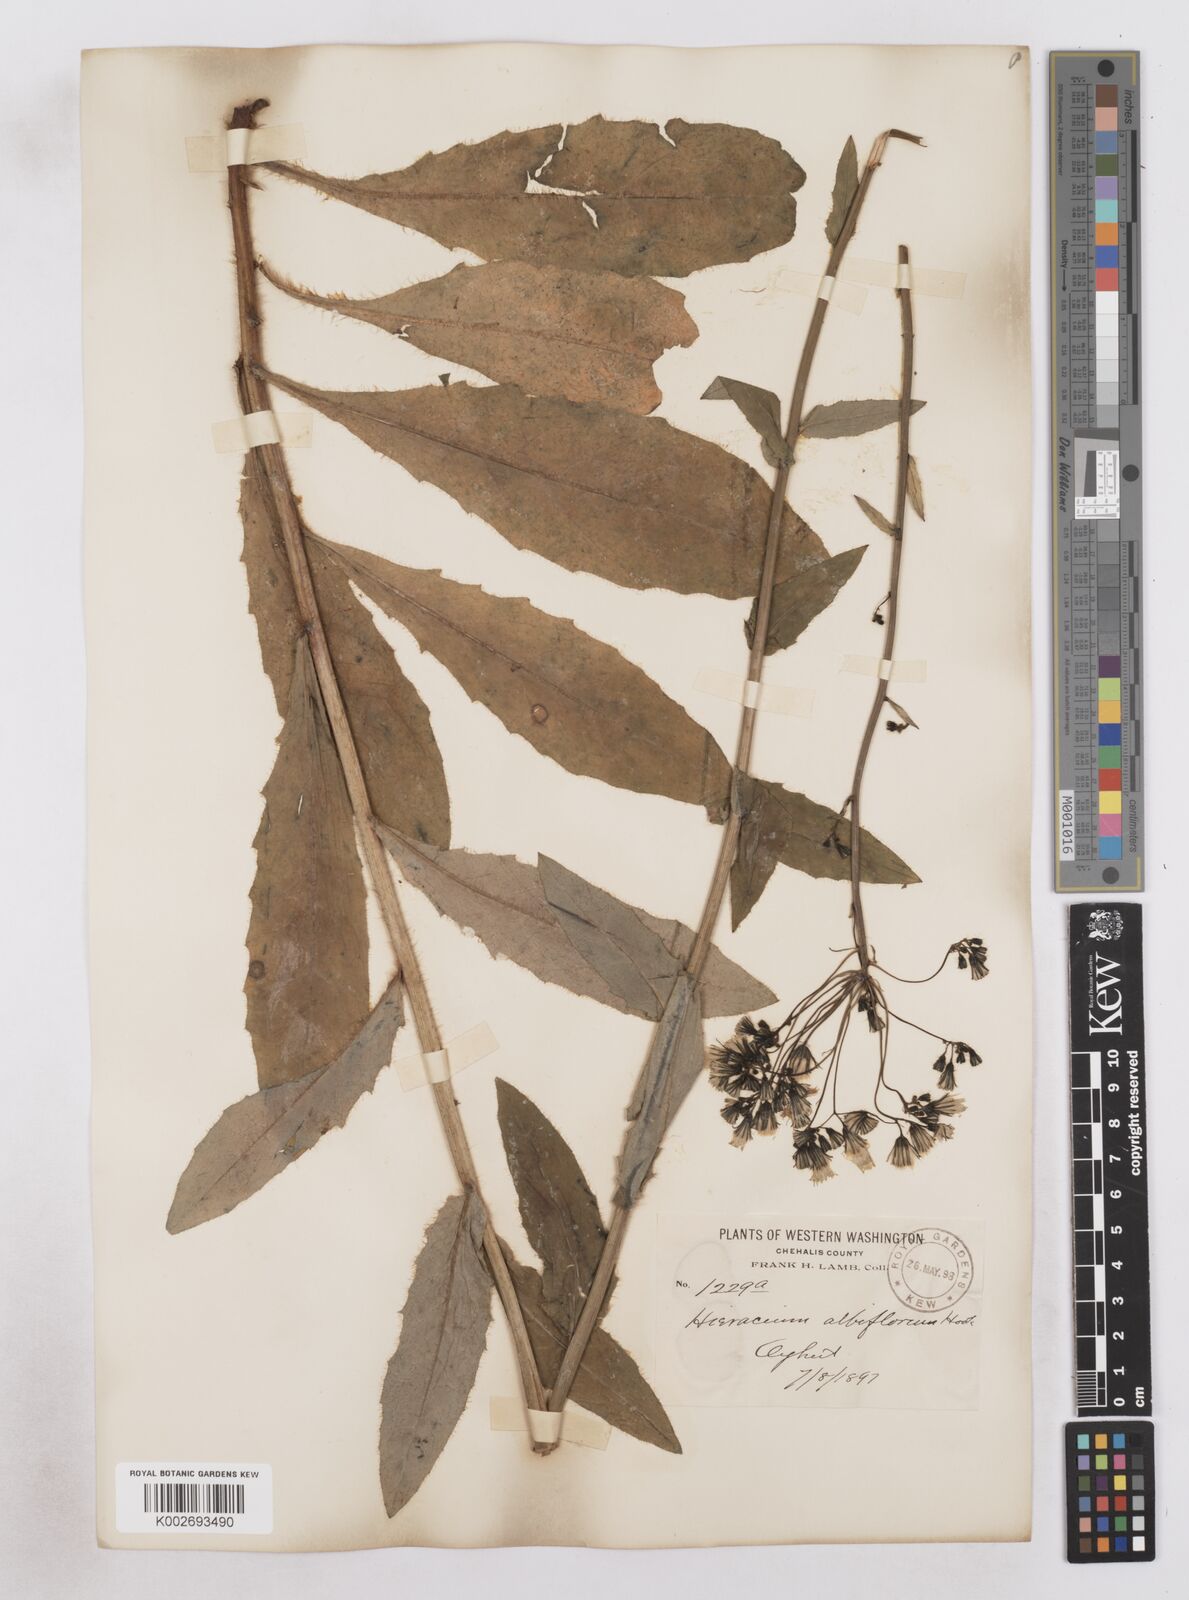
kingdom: Plantae
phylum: Tracheophyta
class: Magnoliopsida
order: Asterales
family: Asteraceae
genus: Hieracium
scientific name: Hieracium albiflorum
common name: White hawkweed
